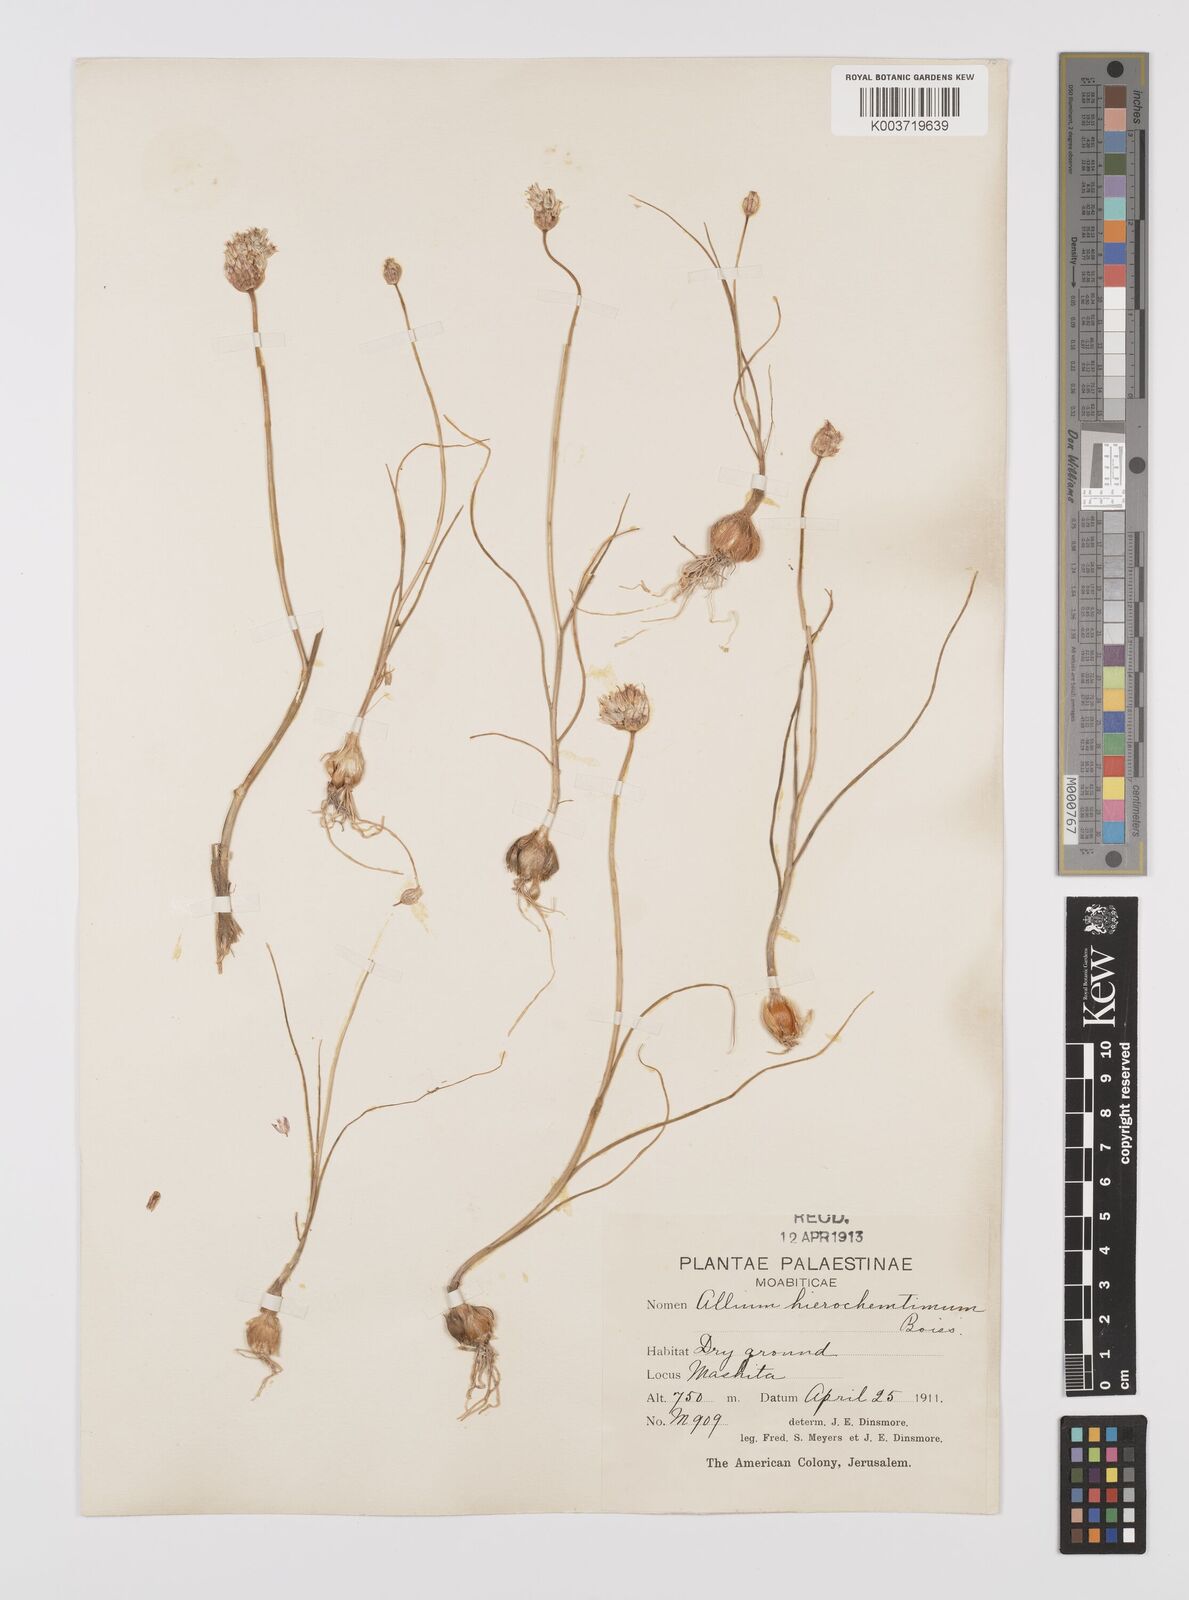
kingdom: Plantae
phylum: Tracheophyta
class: Liliopsida
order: Asparagales
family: Amaryllidaceae
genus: Allium
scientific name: Allium ascalonicum
